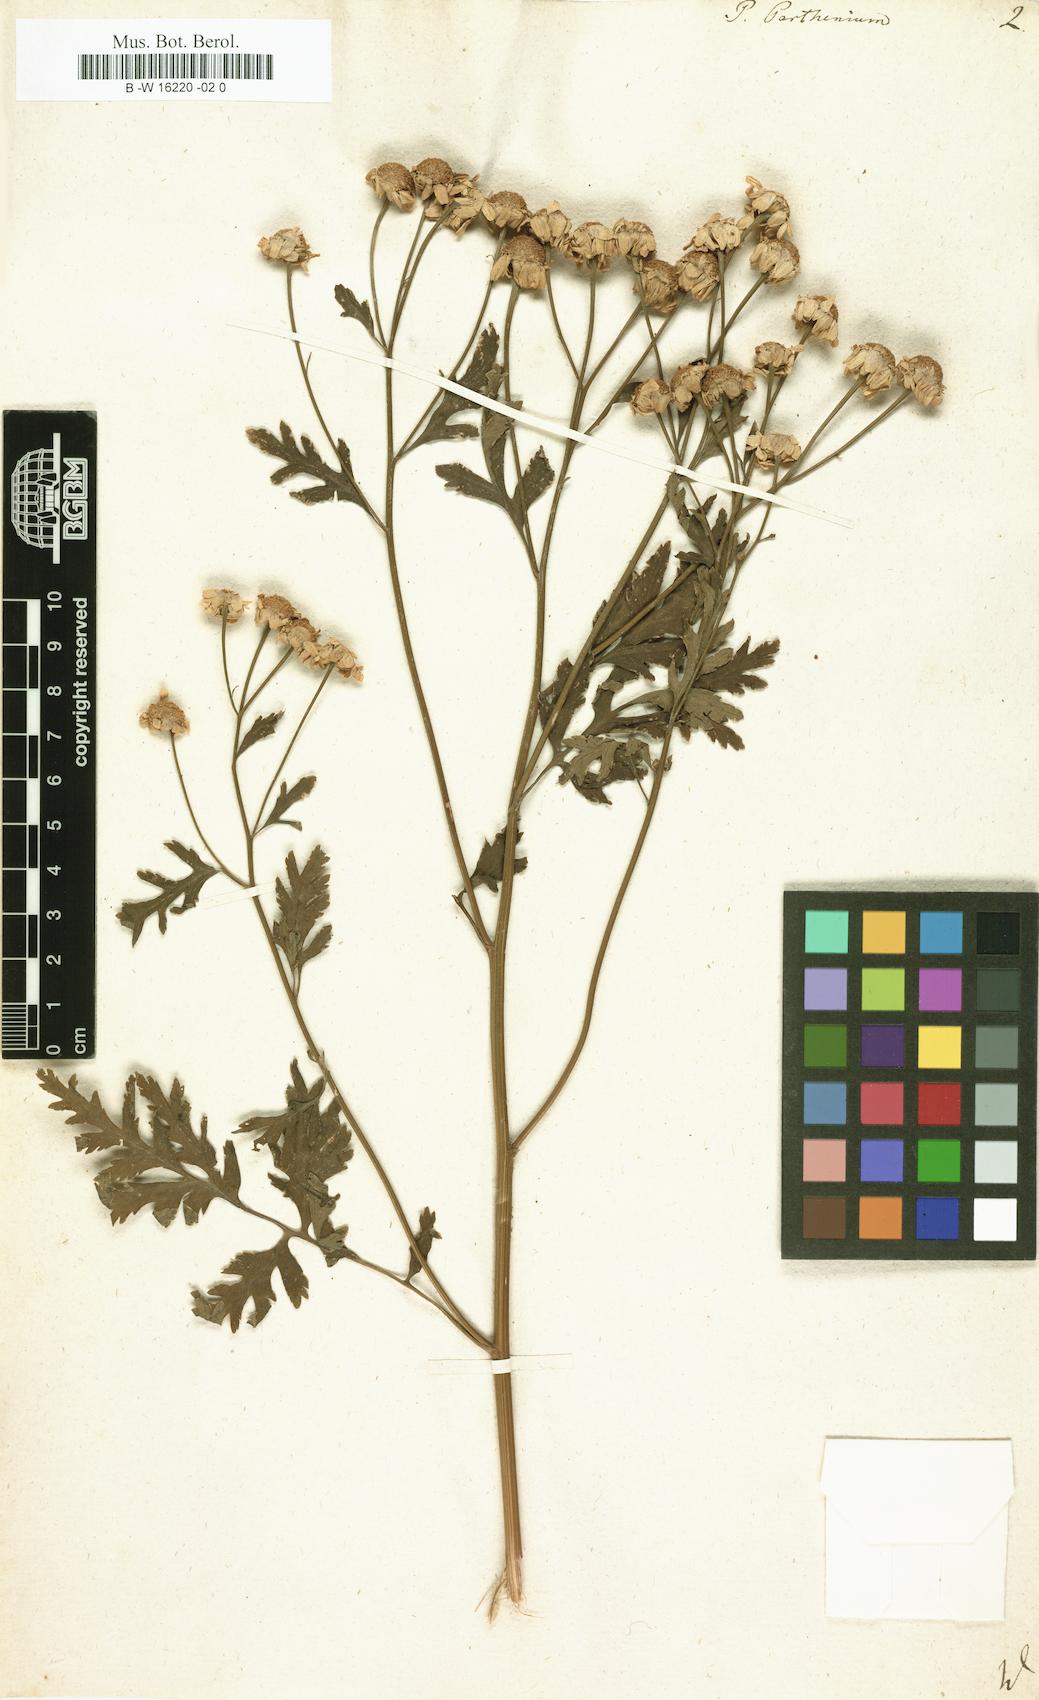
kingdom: Plantae
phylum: Tracheophyta
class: Magnoliopsida
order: Asterales
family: Asteraceae
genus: Tanacetum
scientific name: Tanacetum parthenium
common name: Feverfew
